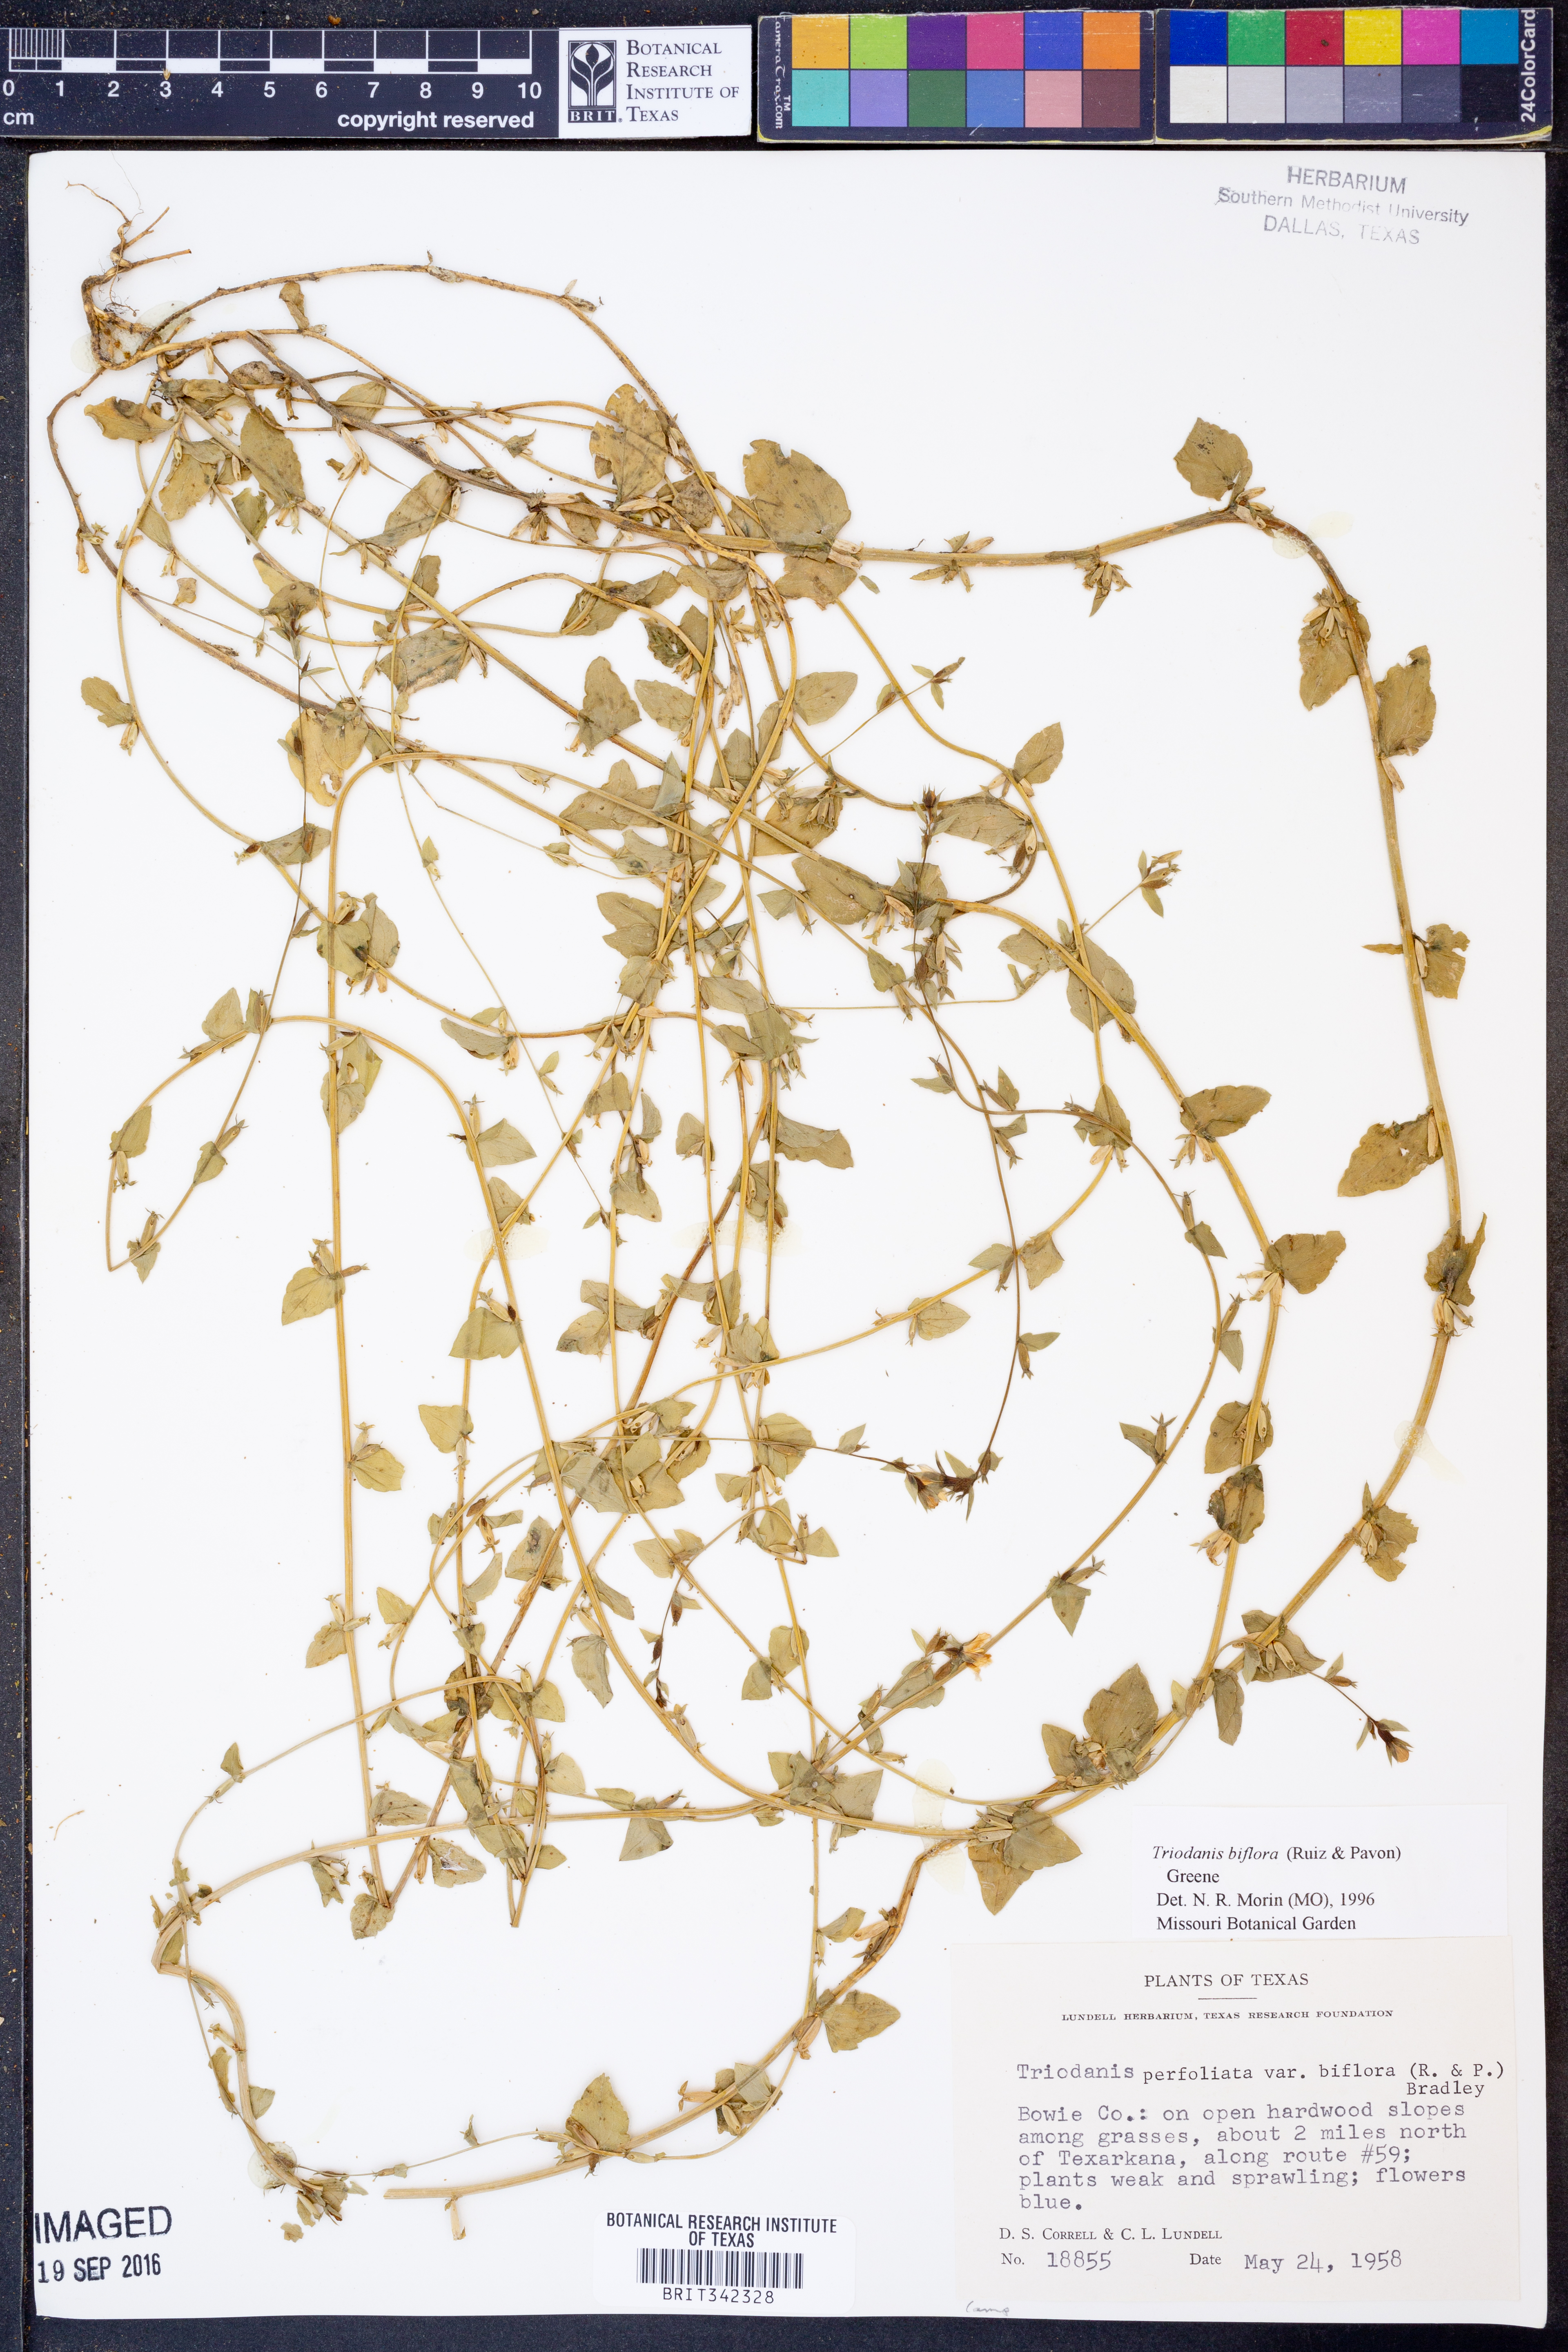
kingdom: Plantae
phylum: Tracheophyta
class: Magnoliopsida
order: Asterales
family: Campanulaceae
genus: Triodanis
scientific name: Triodanis perfoliata
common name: Clasping venus' looking-glass
